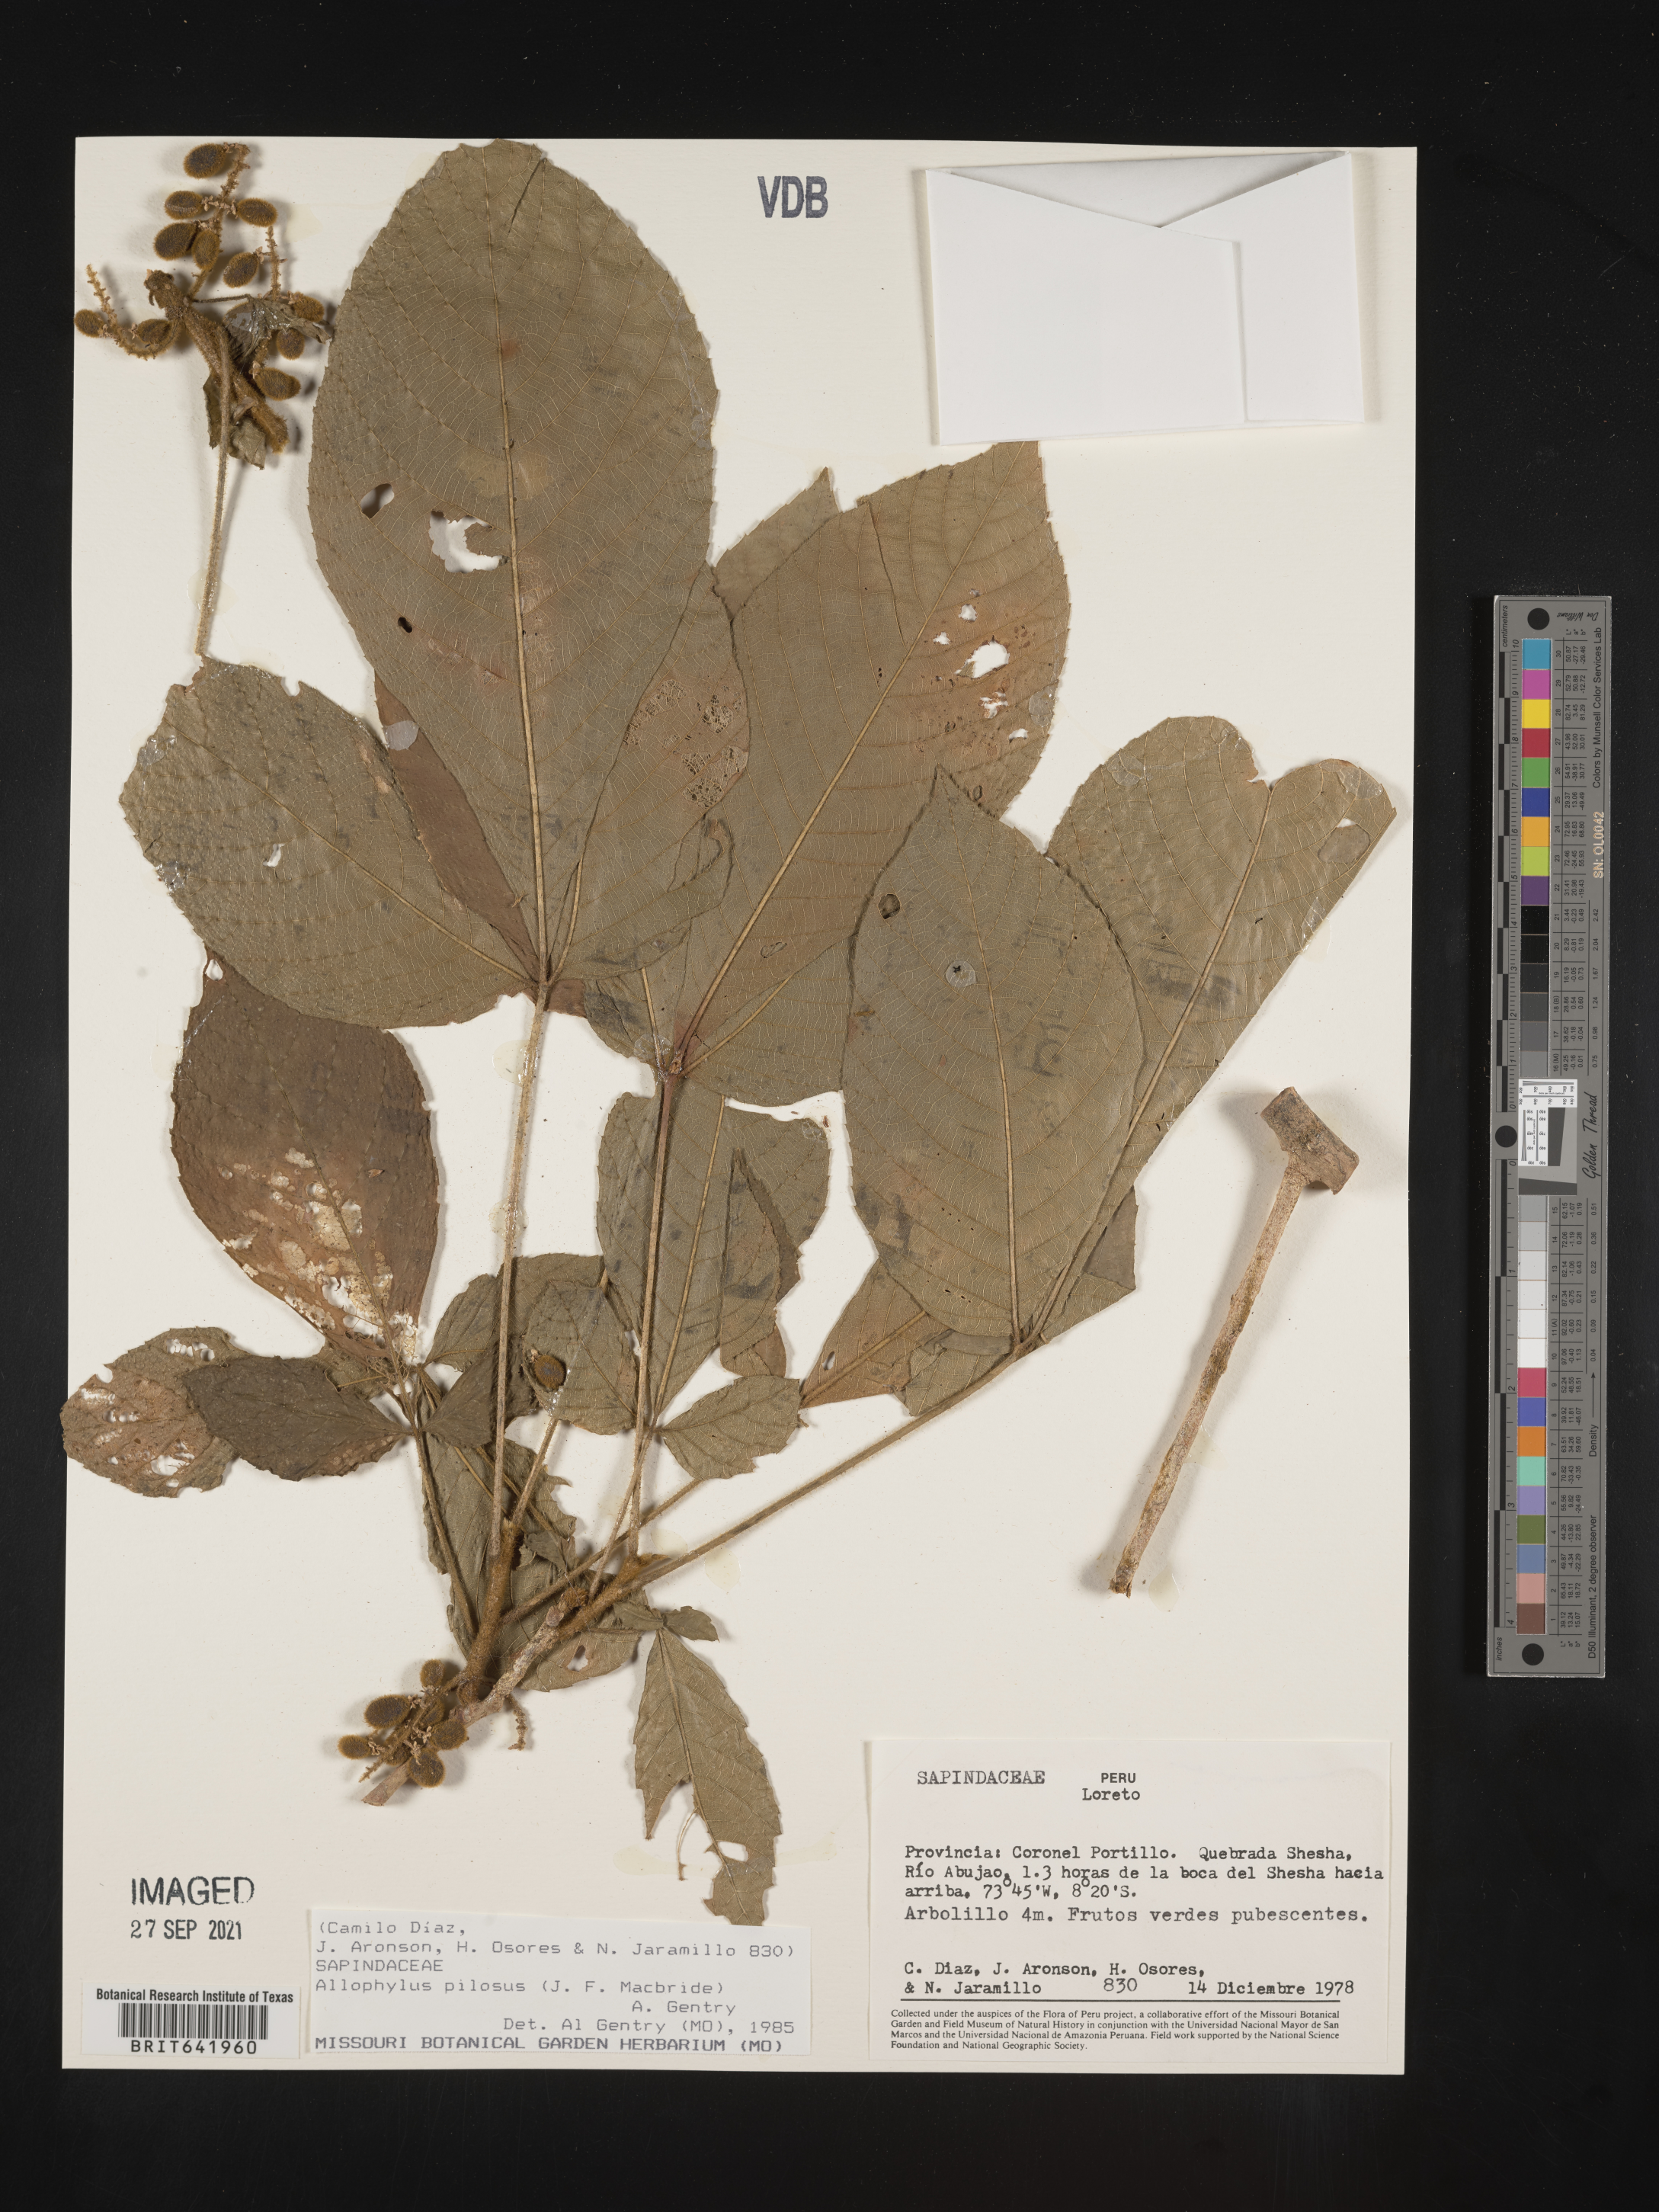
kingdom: Plantae
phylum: Tracheophyta
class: Magnoliopsida
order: Sapindales
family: Sapindaceae
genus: Allophylus
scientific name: Allophylus
